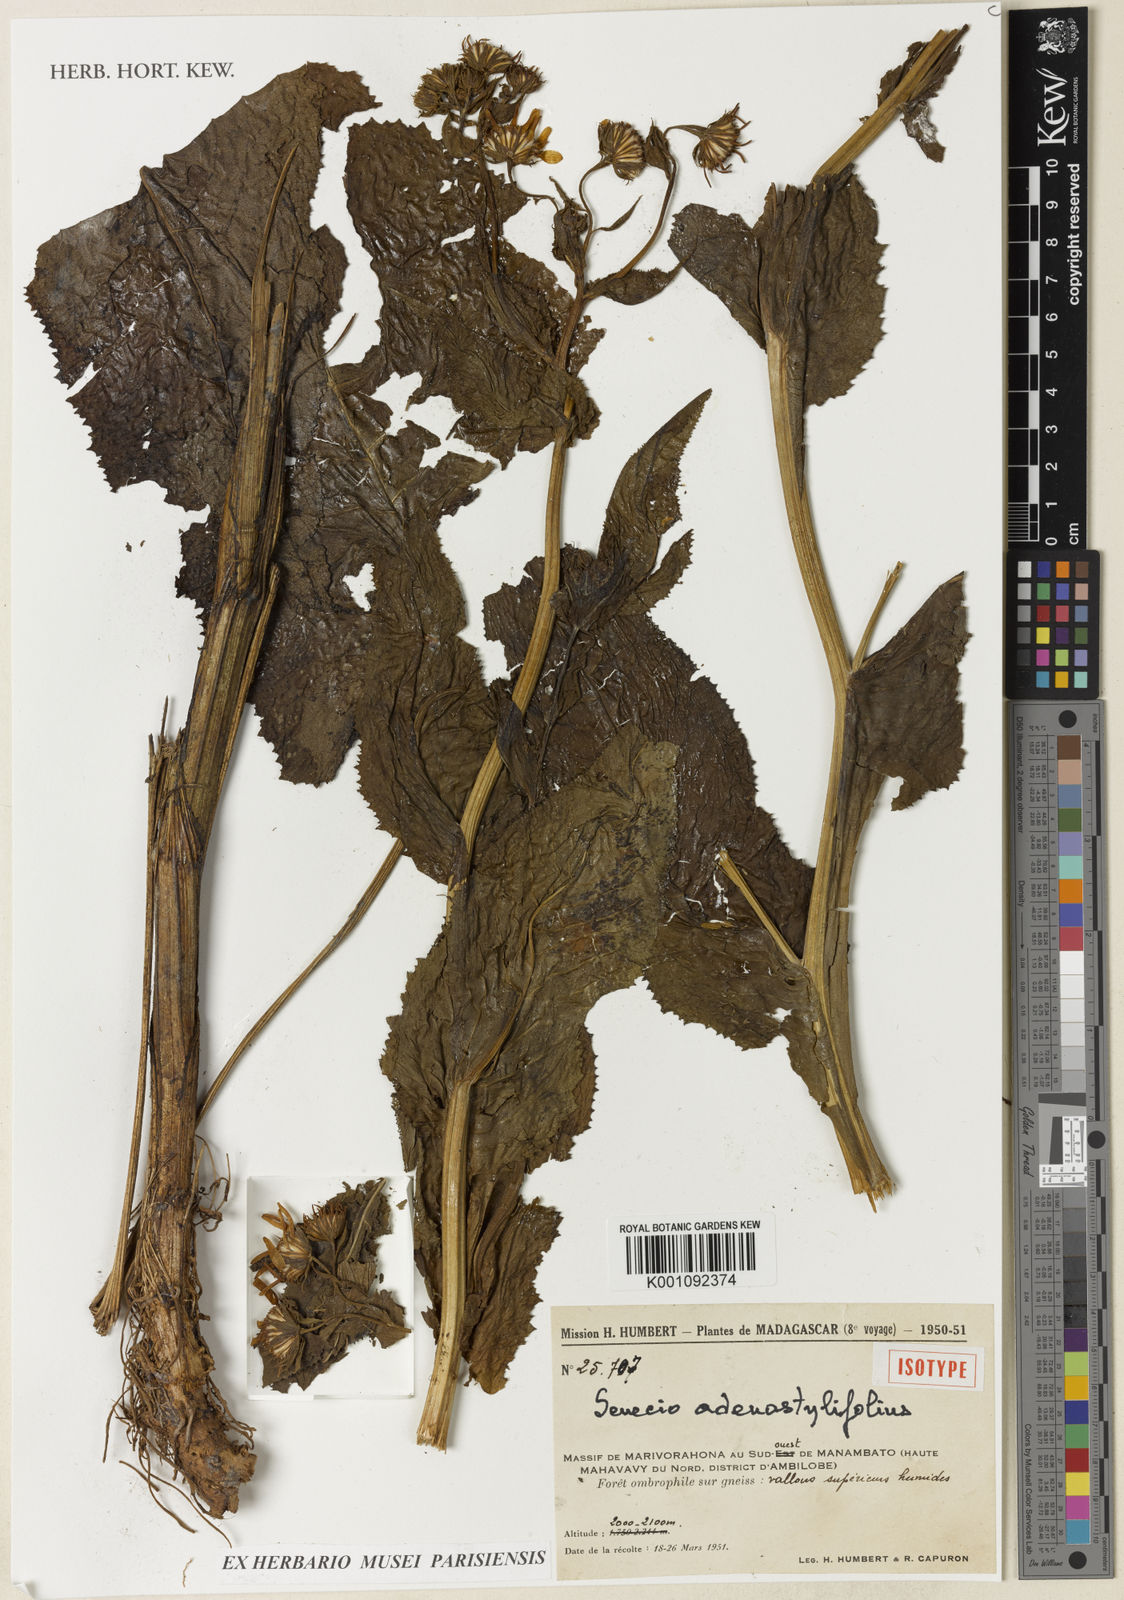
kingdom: Plantae
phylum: Tracheophyta
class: Magnoliopsida
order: Asterales
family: Asteraceae
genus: Senecio
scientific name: Senecio adenostylifolius
